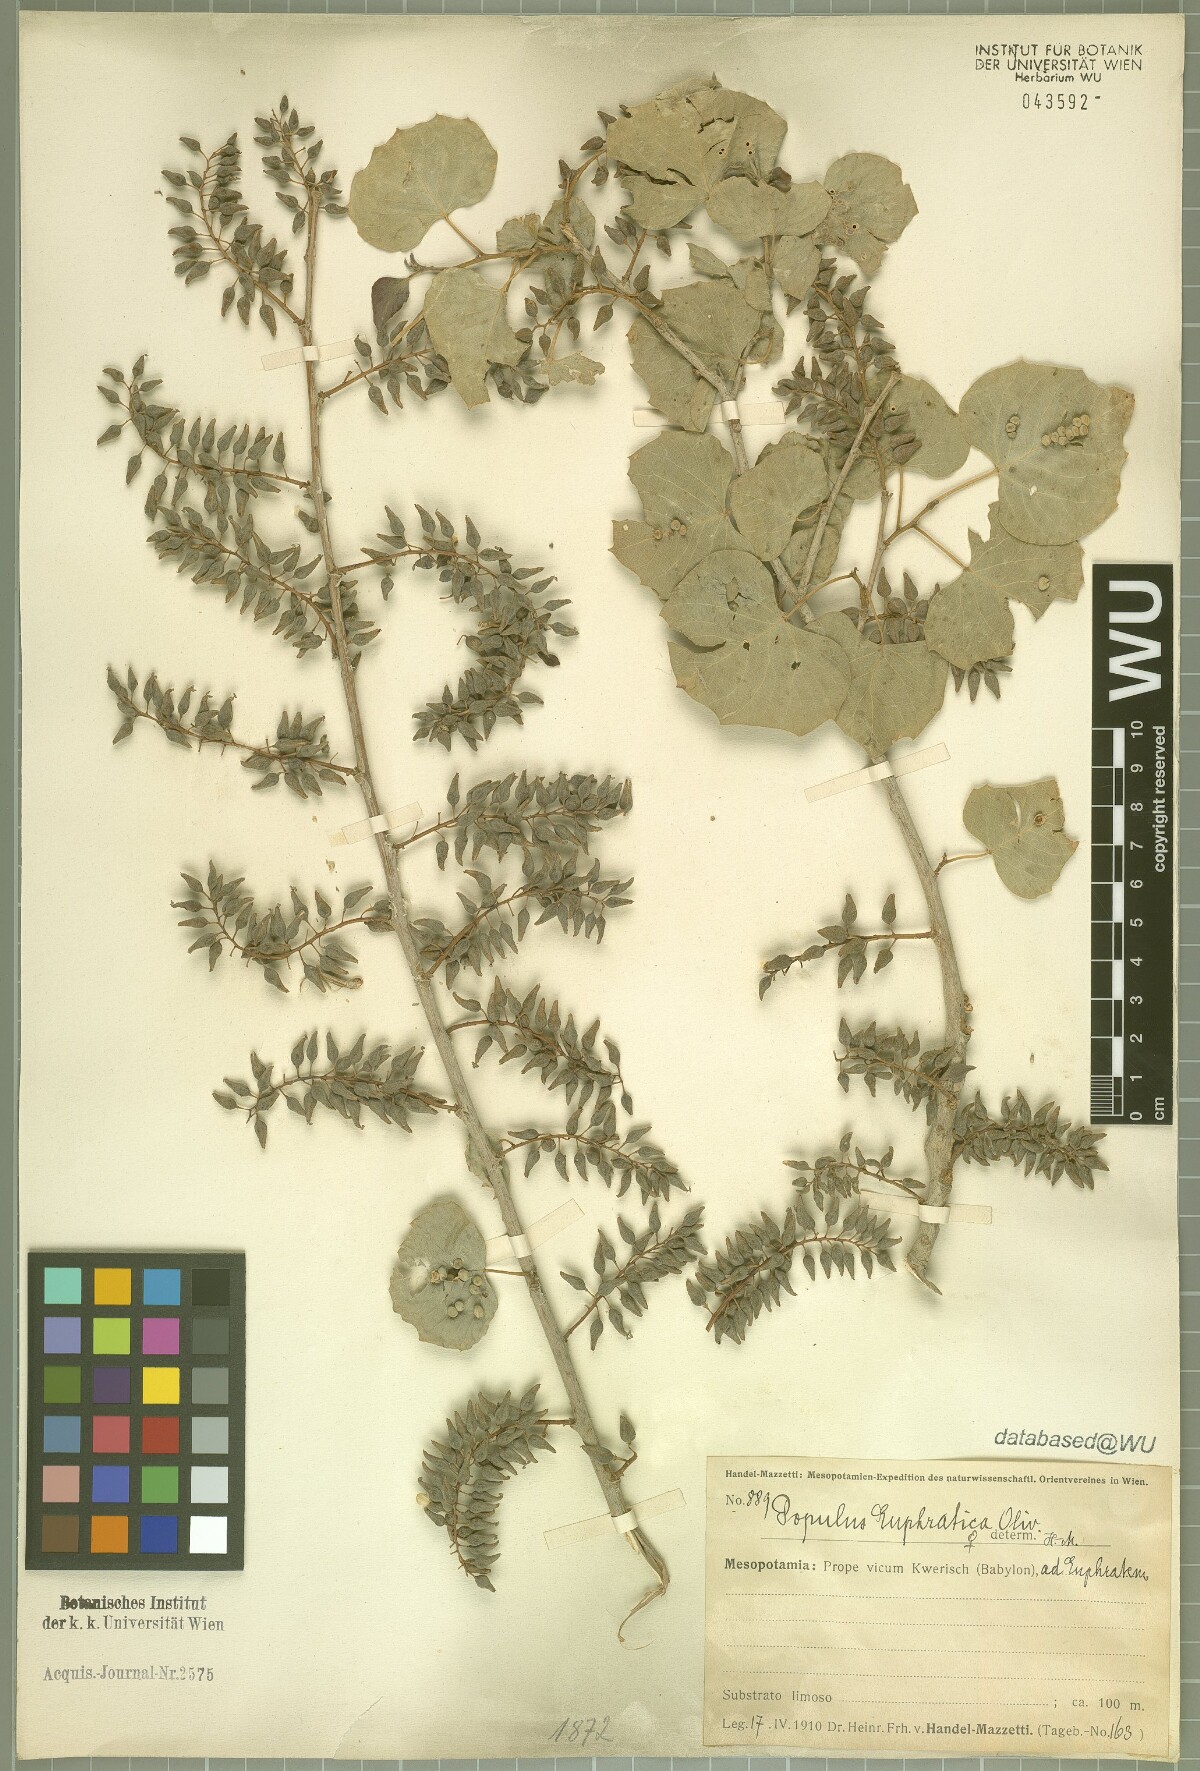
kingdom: Plantae
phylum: Tracheophyta
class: Magnoliopsida
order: Malpighiales
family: Salicaceae
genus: Populus
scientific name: Populus euphratica
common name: Euphrates poplar
